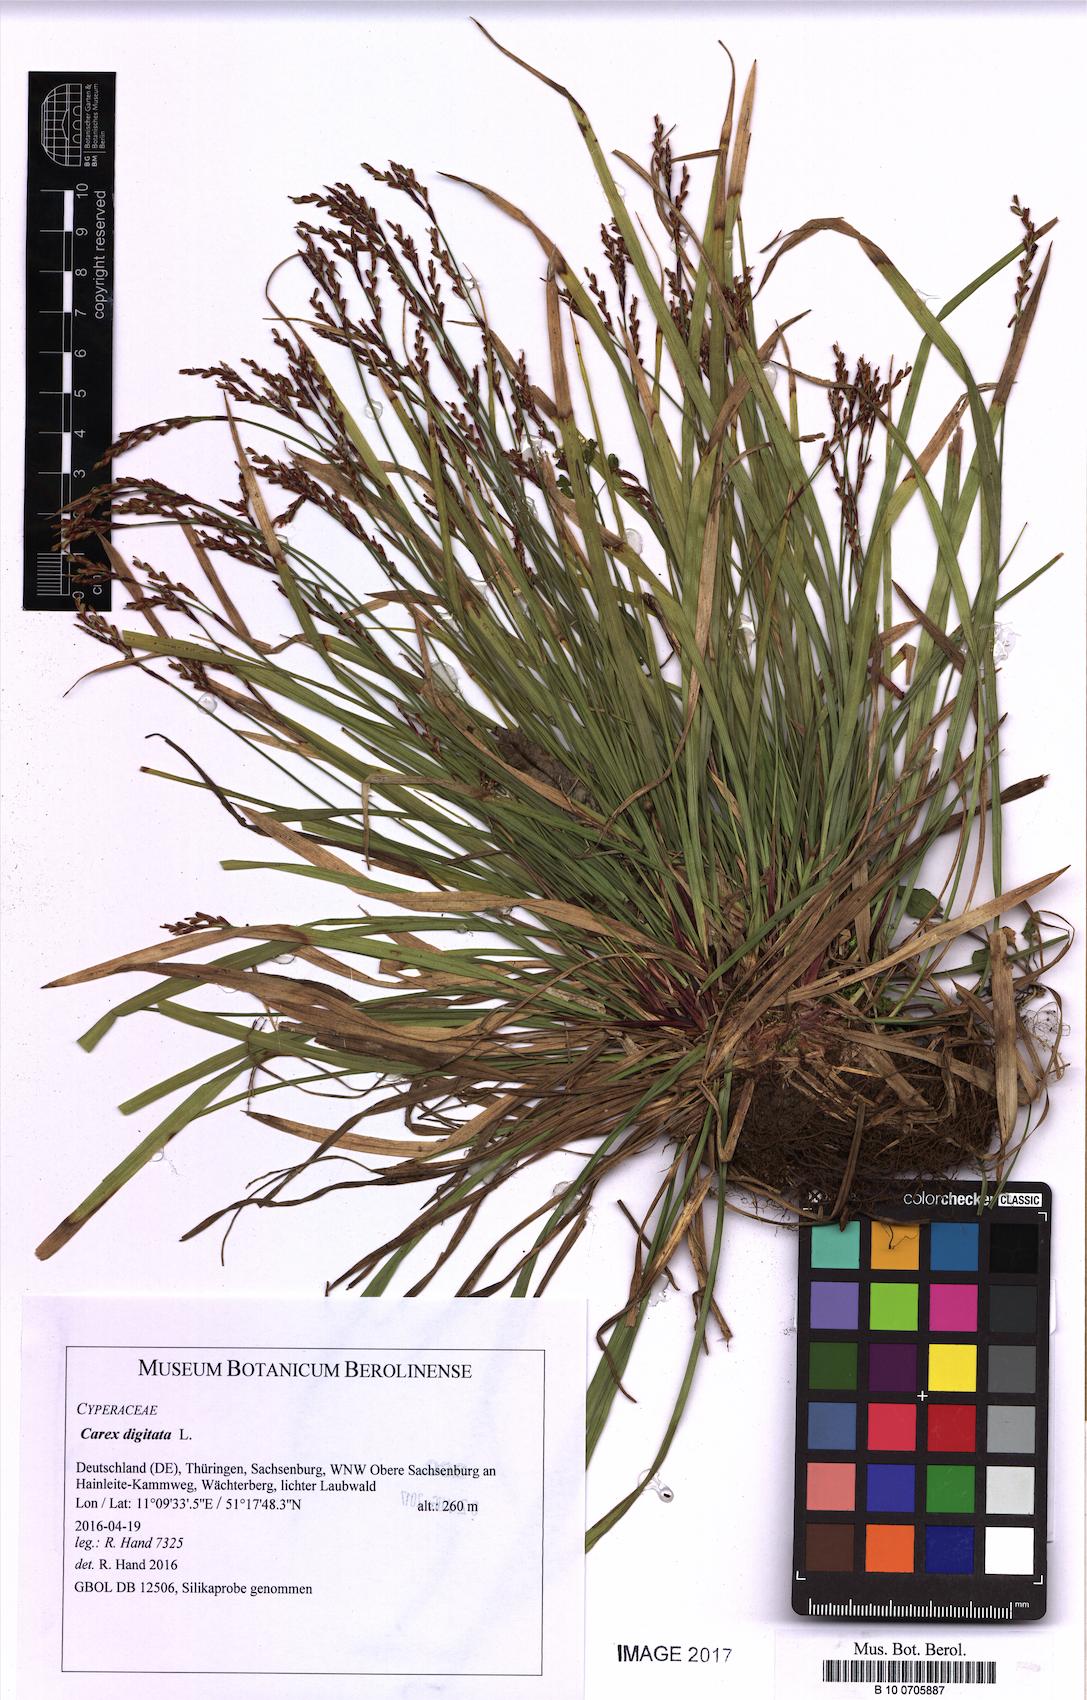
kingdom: Plantae
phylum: Tracheophyta
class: Liliopsida
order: Poales
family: Cyperaceae
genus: Carex
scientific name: Carex digitata
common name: Fingered sedge
